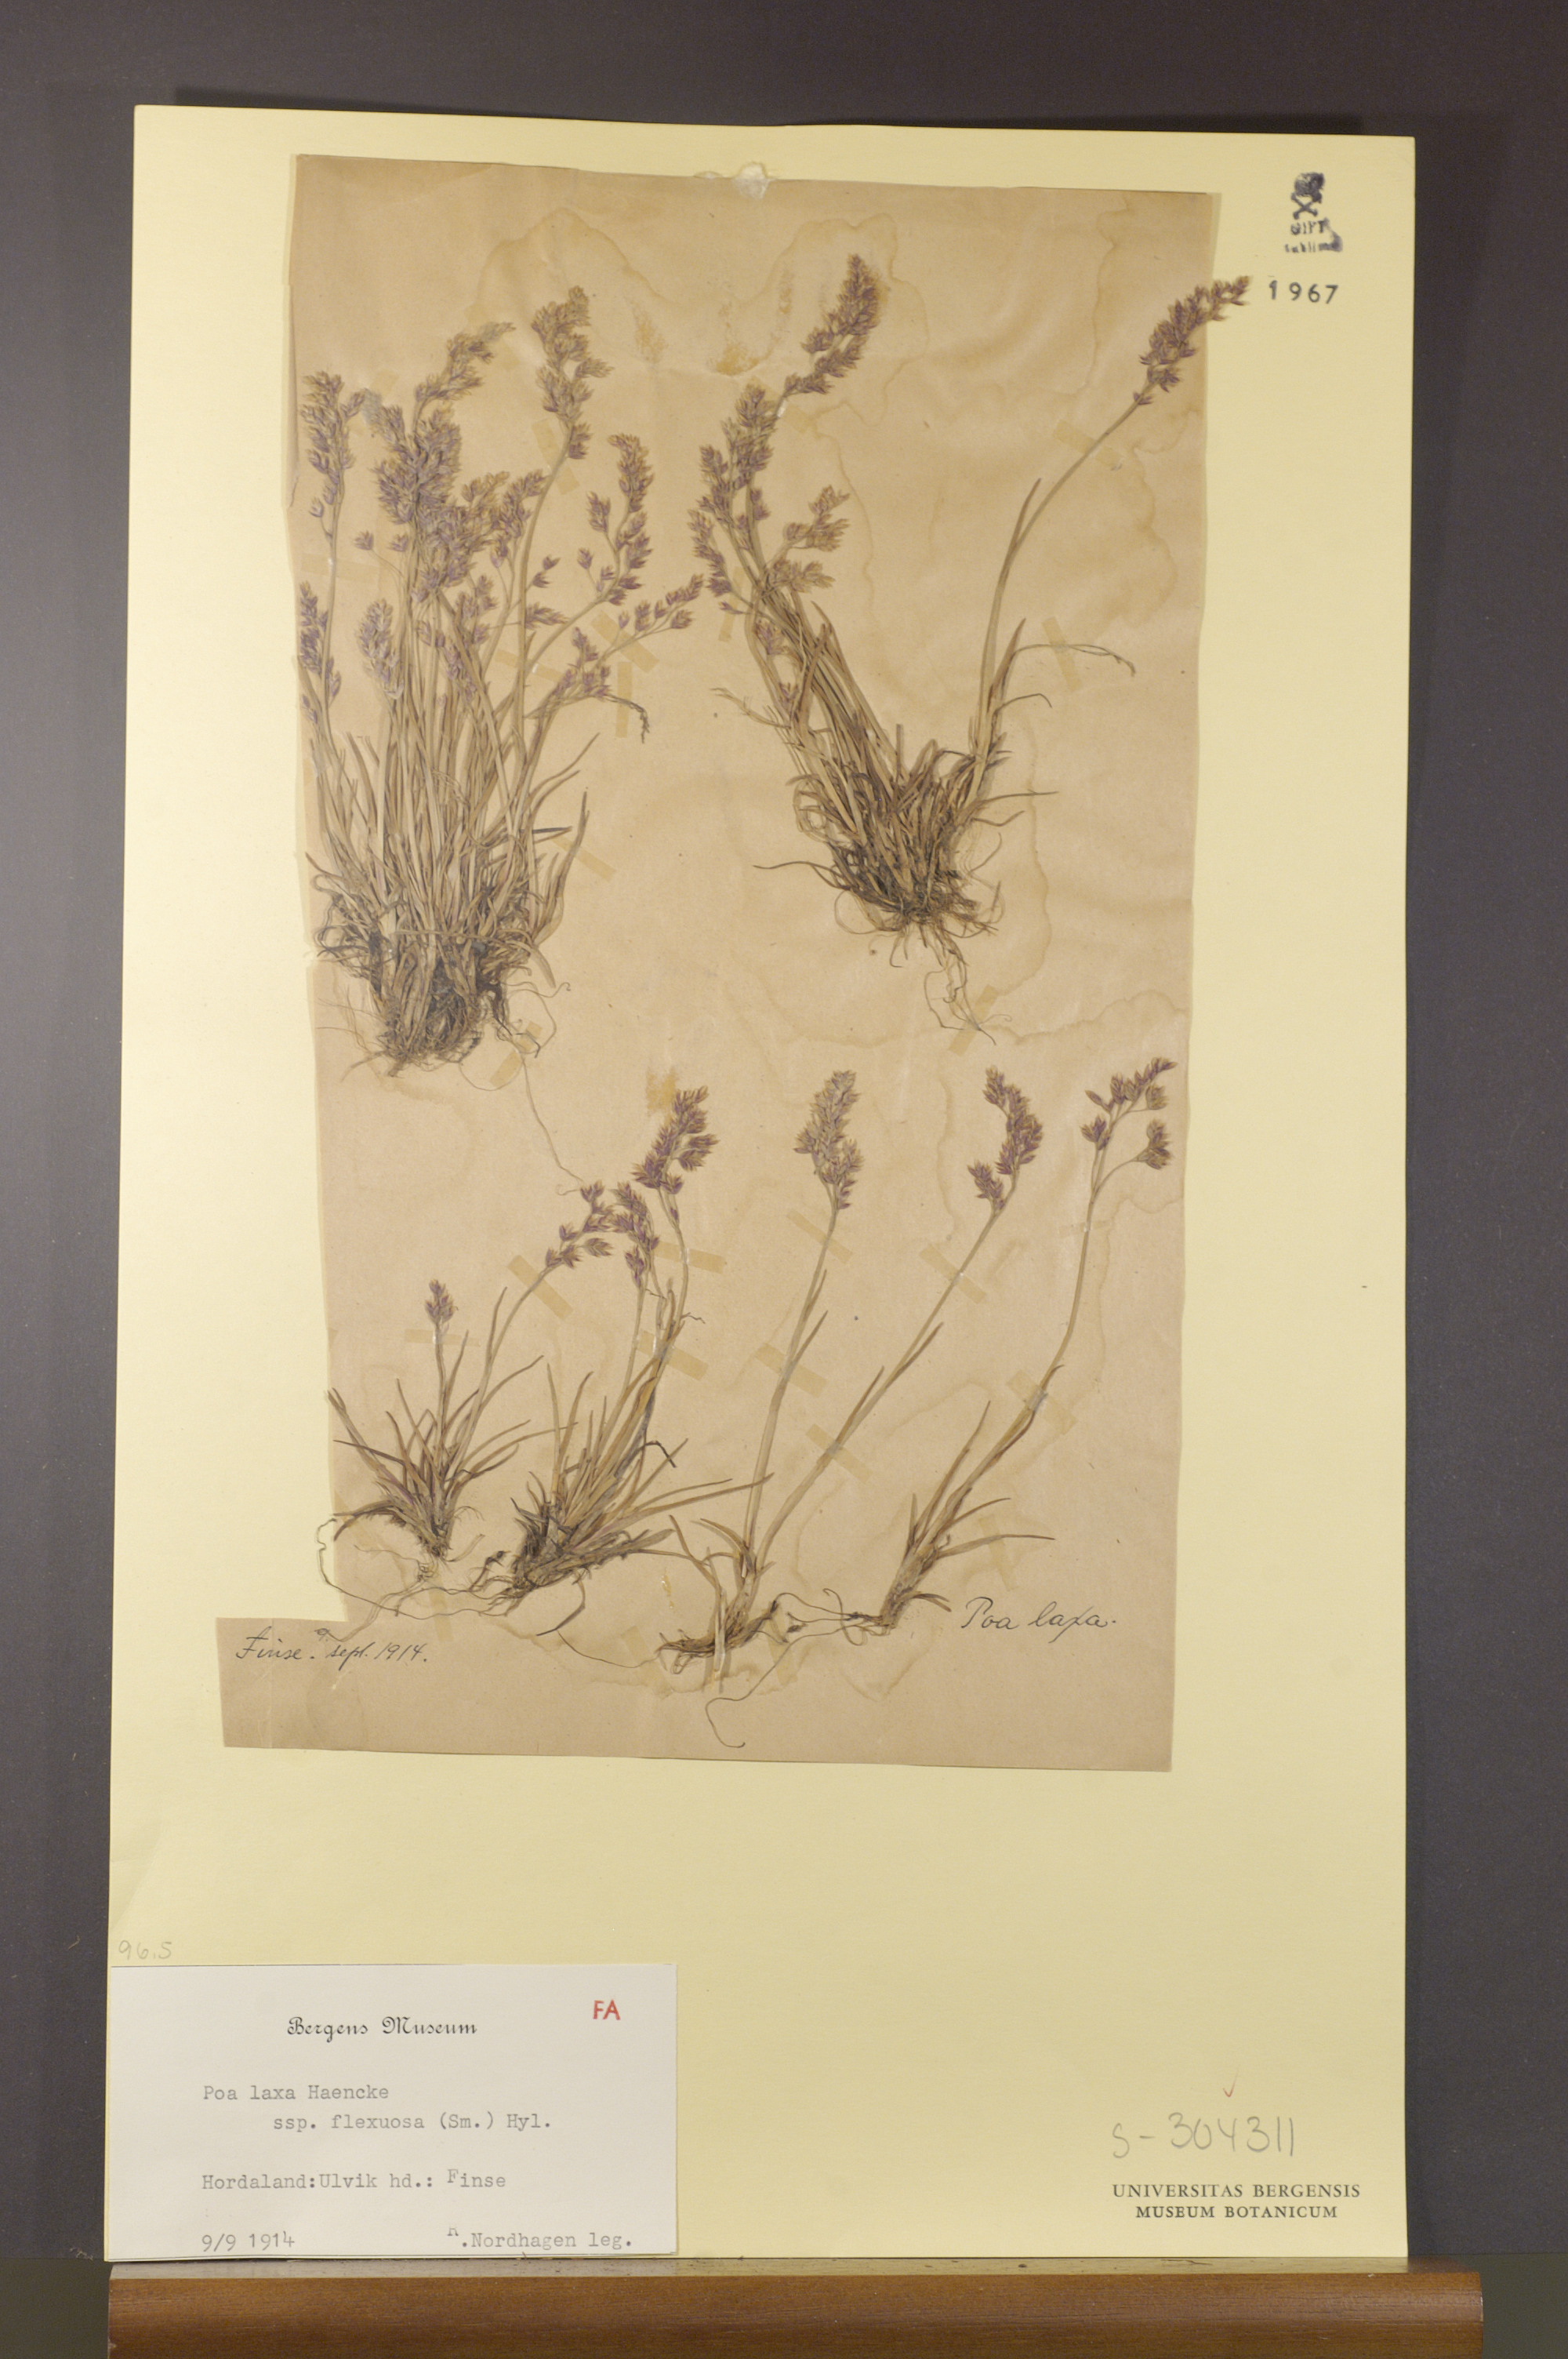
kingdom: Plantae
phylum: Tracheophyta
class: Liliopsida
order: Poales
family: Poaceae
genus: Poa
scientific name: Poa flexuosa
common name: Wavy meadow-grass
